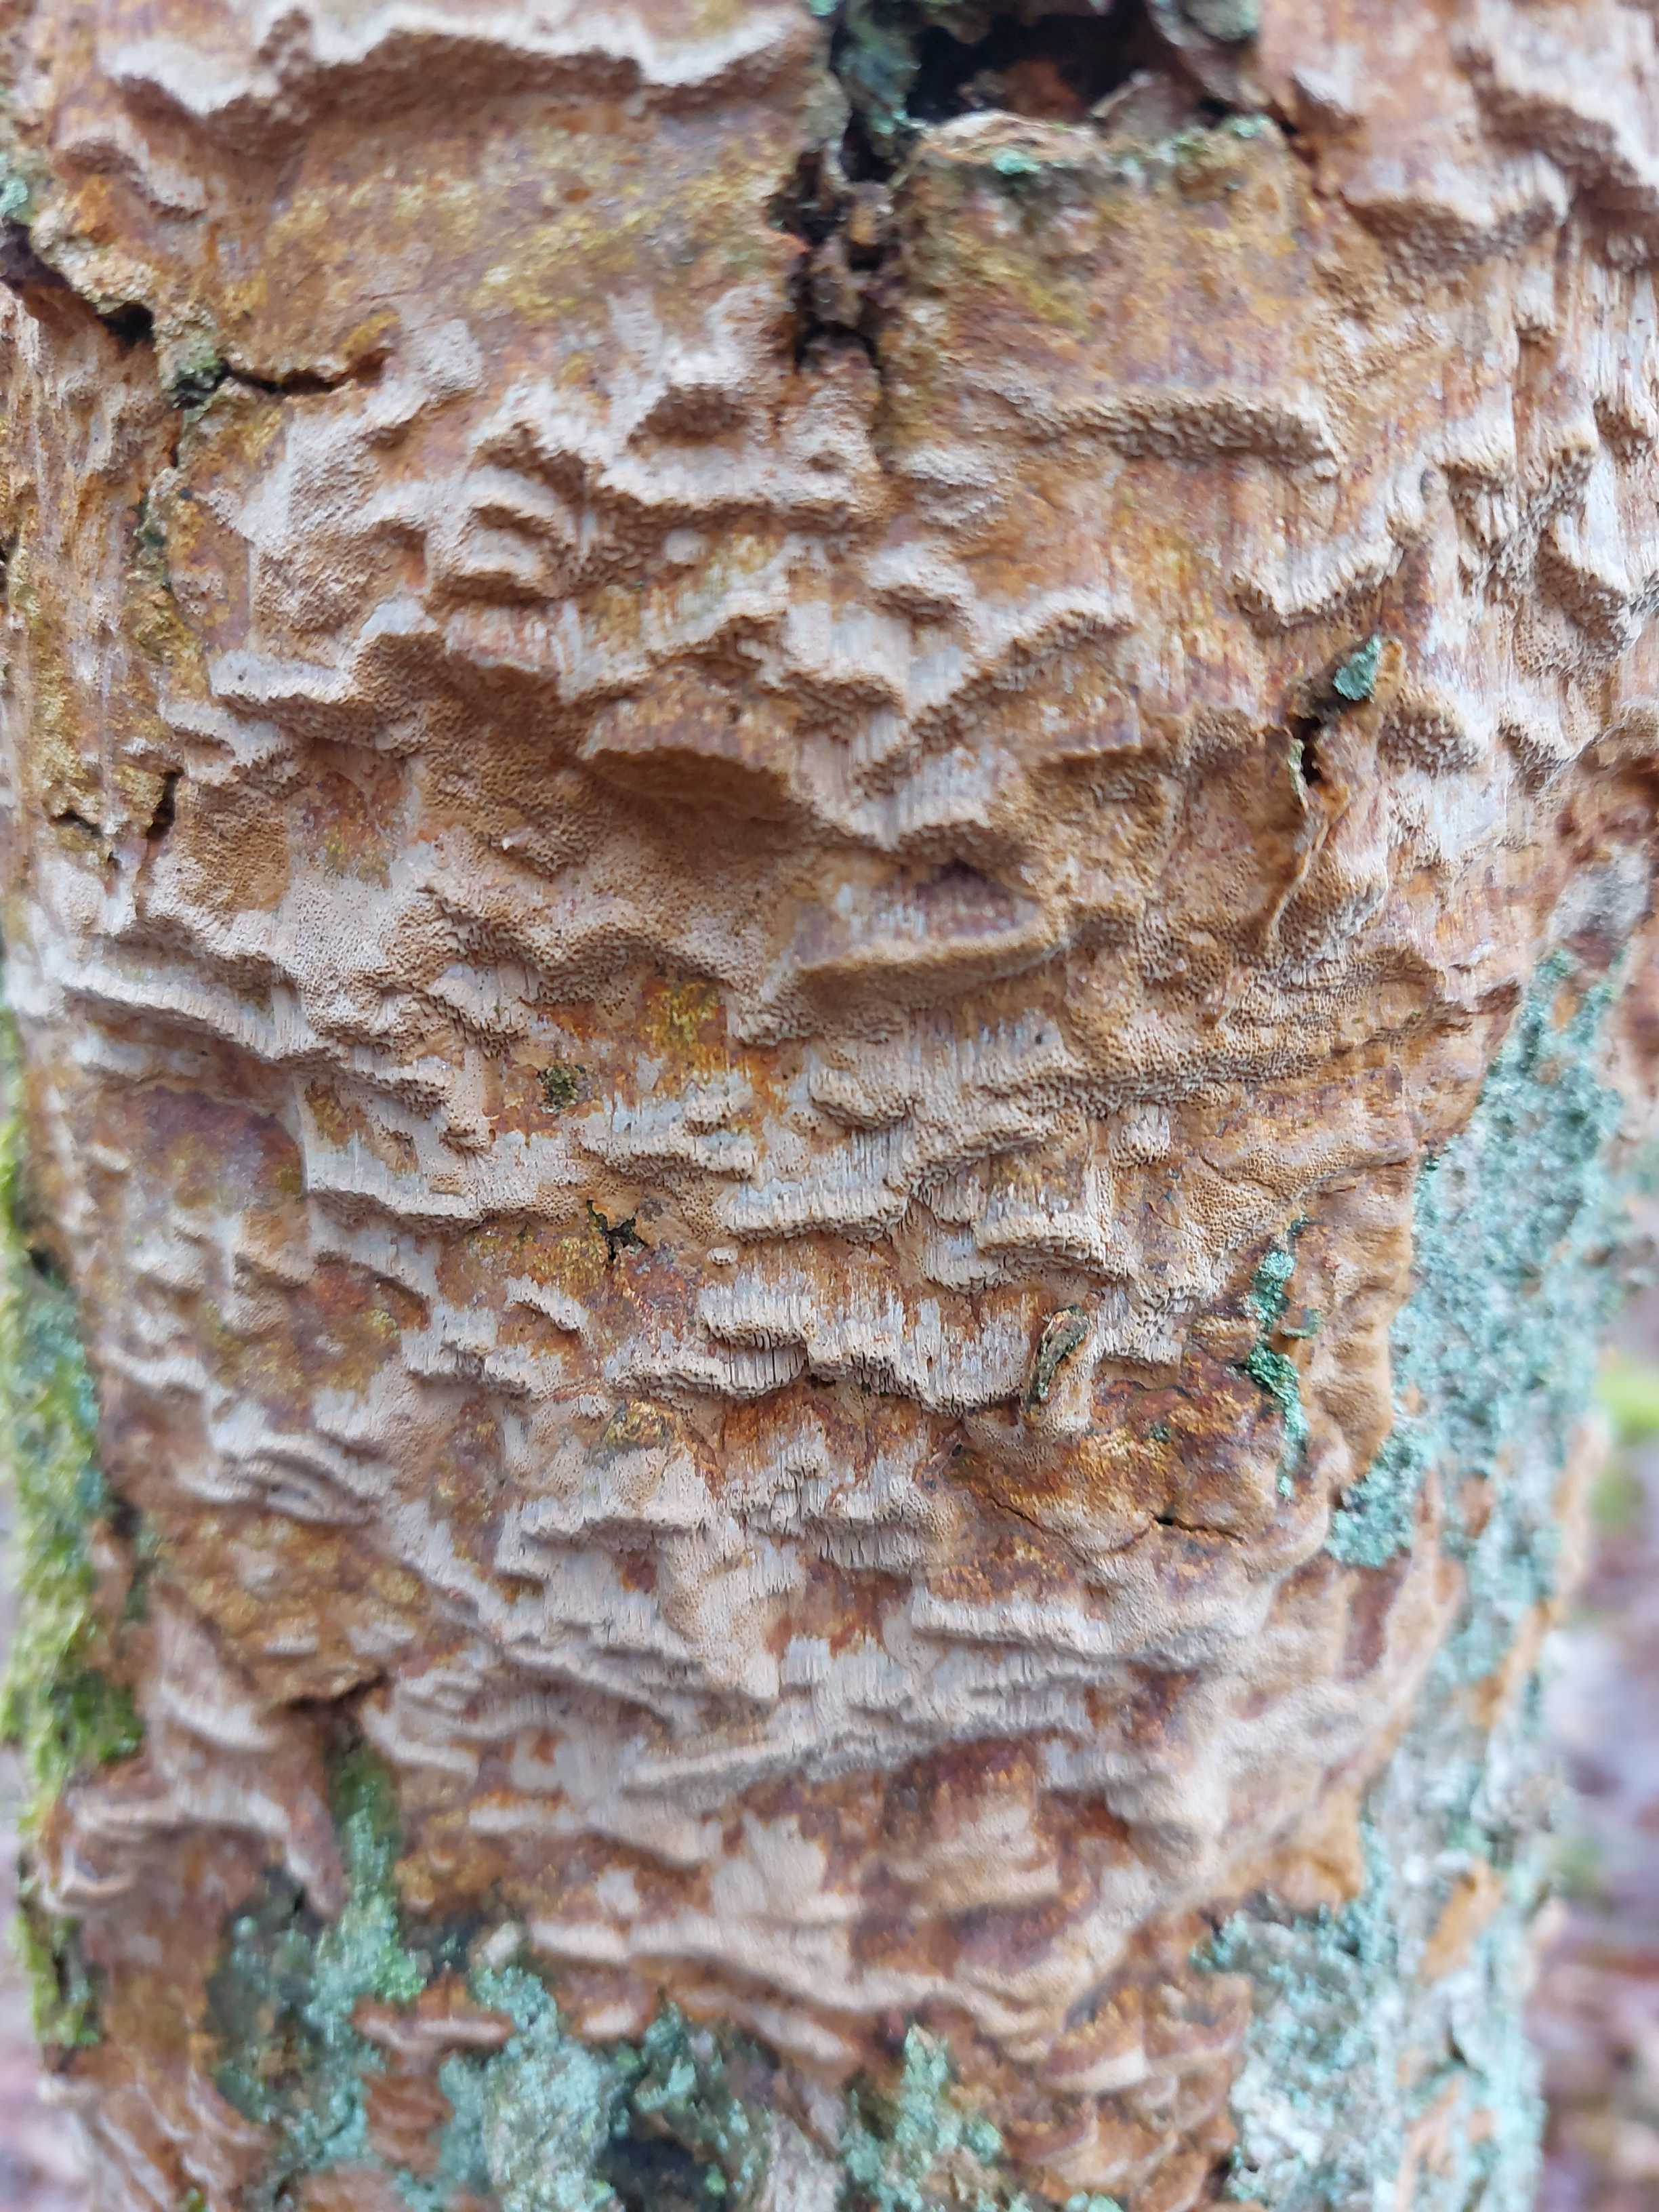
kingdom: Fungi
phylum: Basidiomycota
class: Agaricomycetes
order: Hymenochaetales
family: Hymenochaetaceae
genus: Fuscoporia
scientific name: Fuscoporia ferrea
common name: skorpe-ildporesvamp
